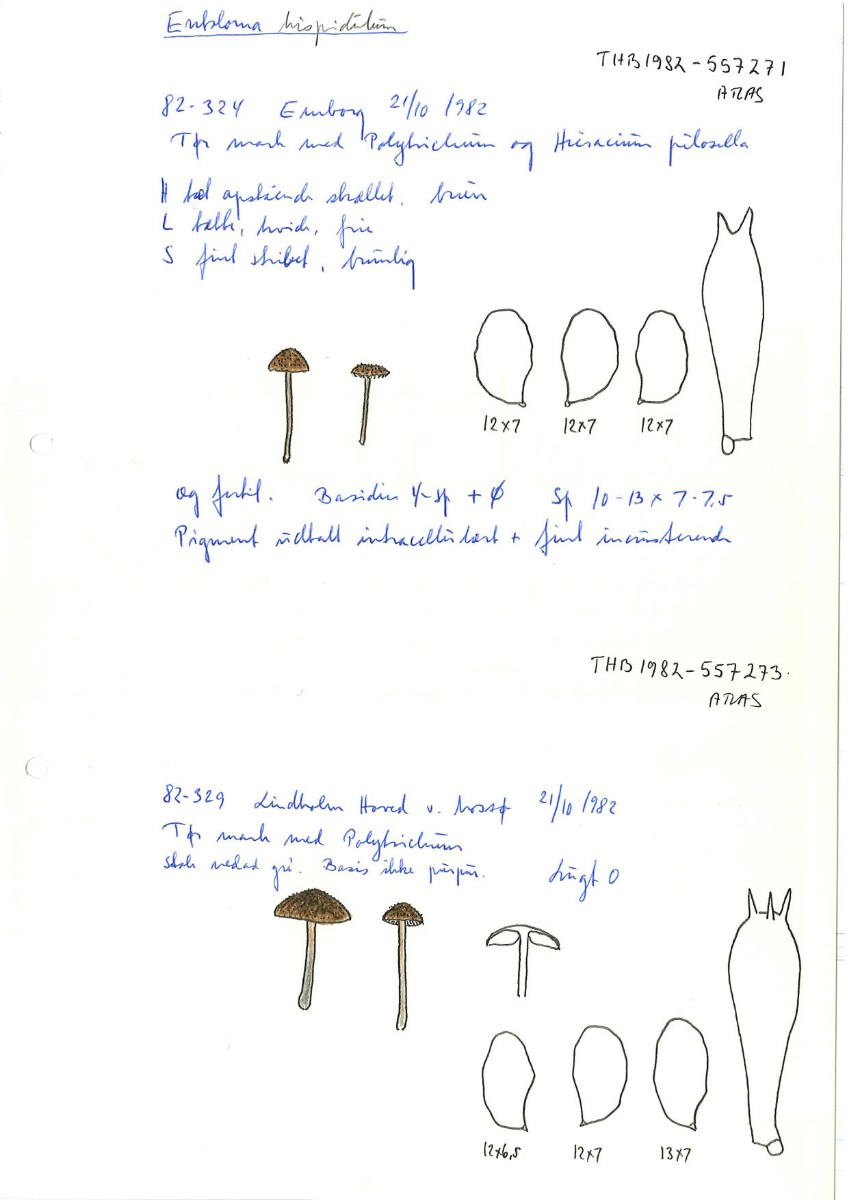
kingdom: Fungi
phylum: Basidiomycota
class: Agaricomycetes
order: Agaricales
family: Entolomataceae
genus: Entoloma
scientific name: Entoloma hispidulum
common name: småskællet rødblad
